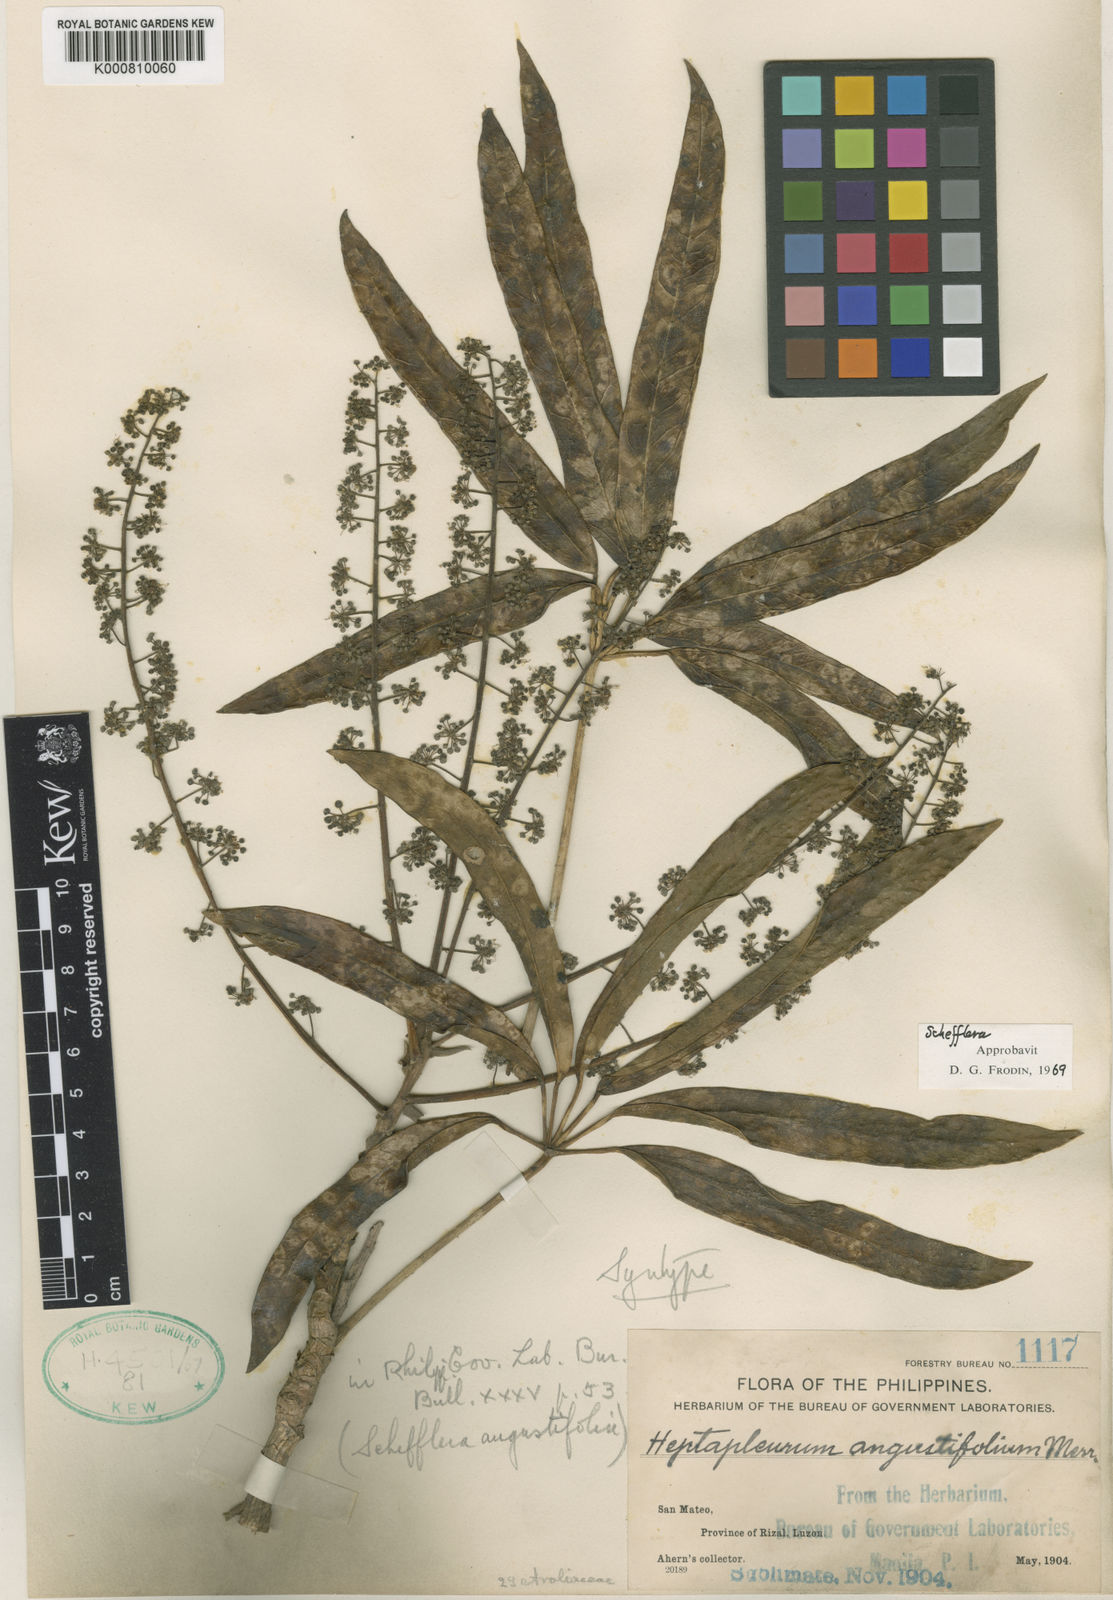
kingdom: Plantae
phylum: Tracheophyta
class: Magnoliopsida
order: Apiales
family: Araliaceae
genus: Heptapleurum
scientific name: Heptapleurum angustifolium
